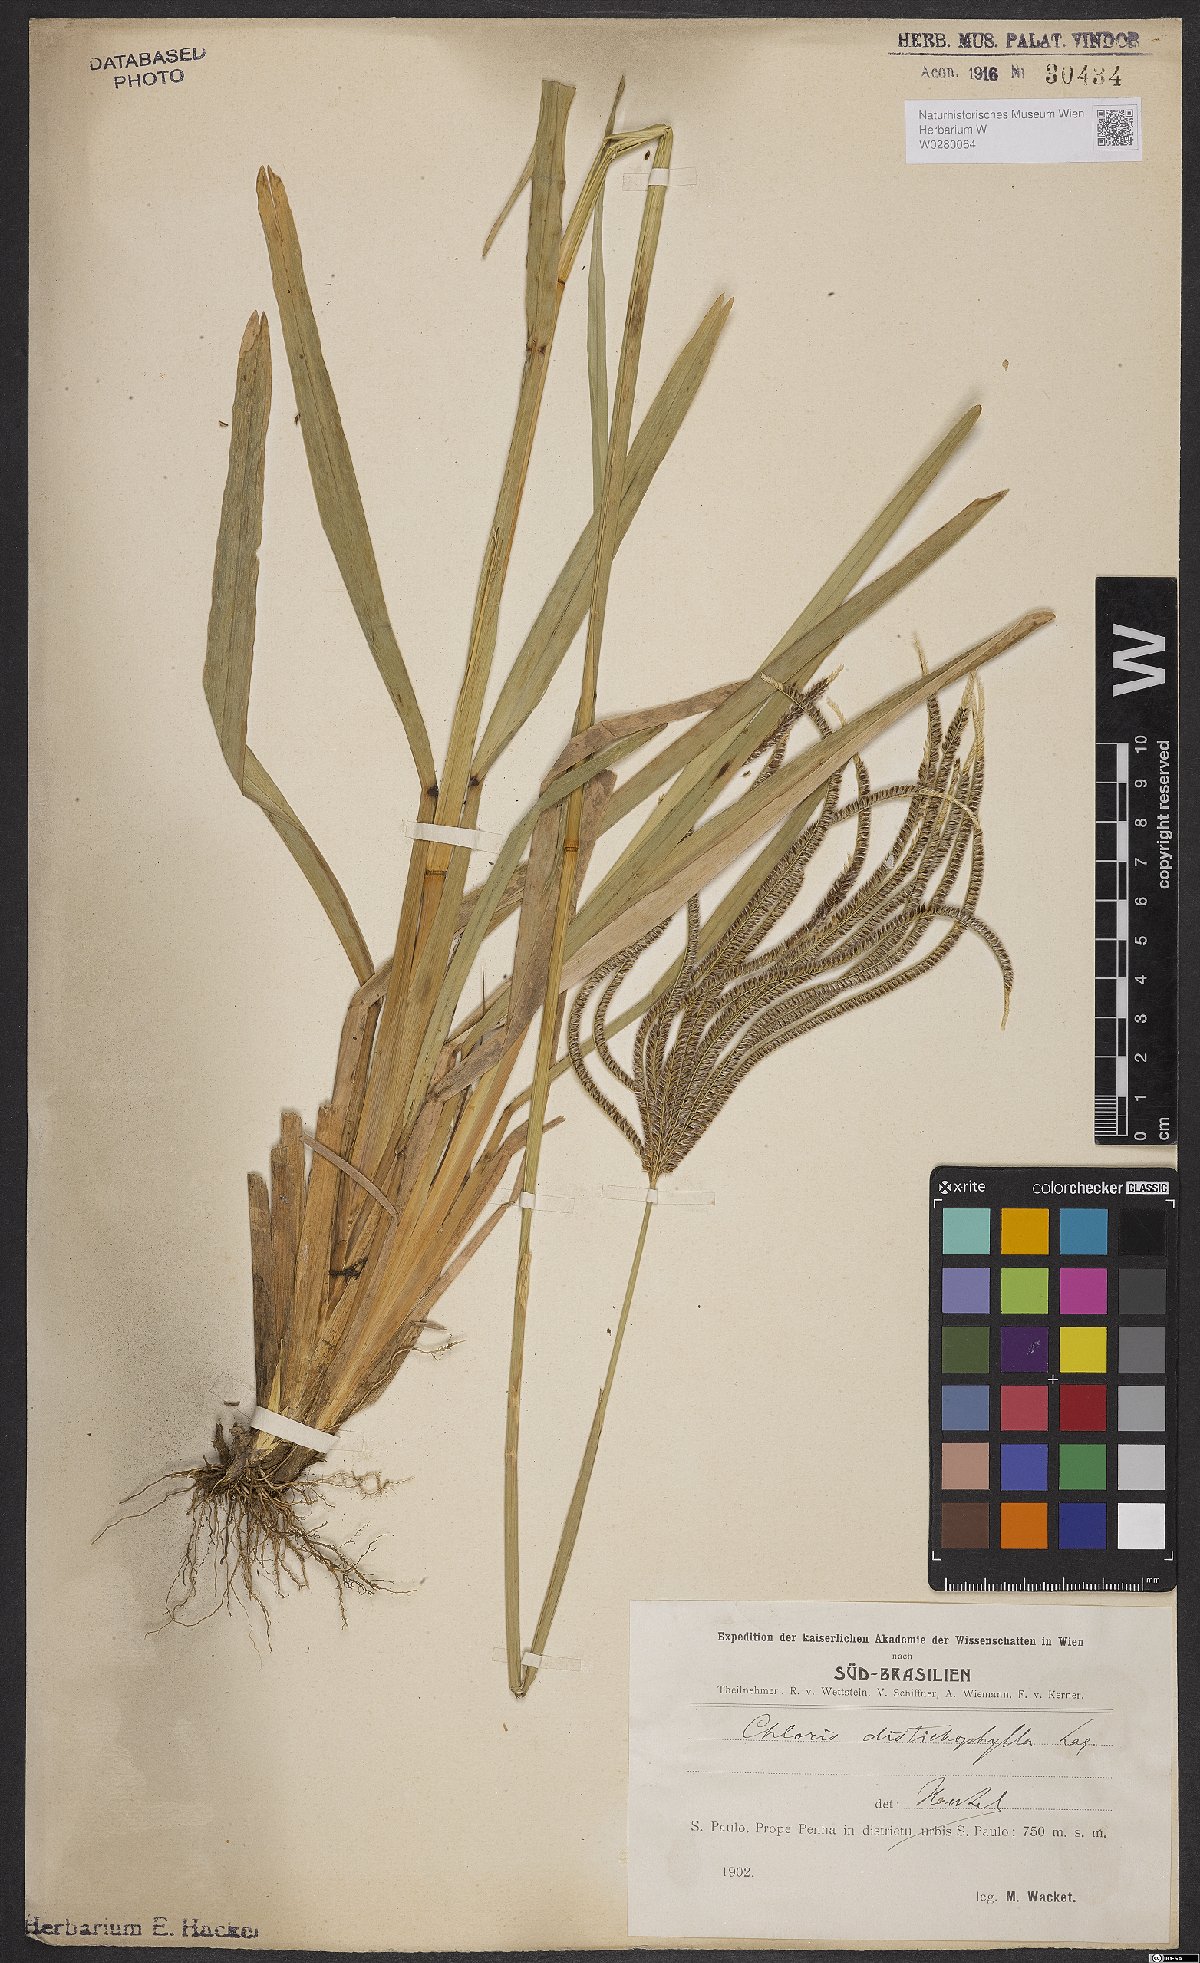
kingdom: Plantae
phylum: Tracheophyta
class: Liliopsida
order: Poales
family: Poaceae
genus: Eustachys
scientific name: Eustachys distichophylla
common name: Weeping fingergrass
